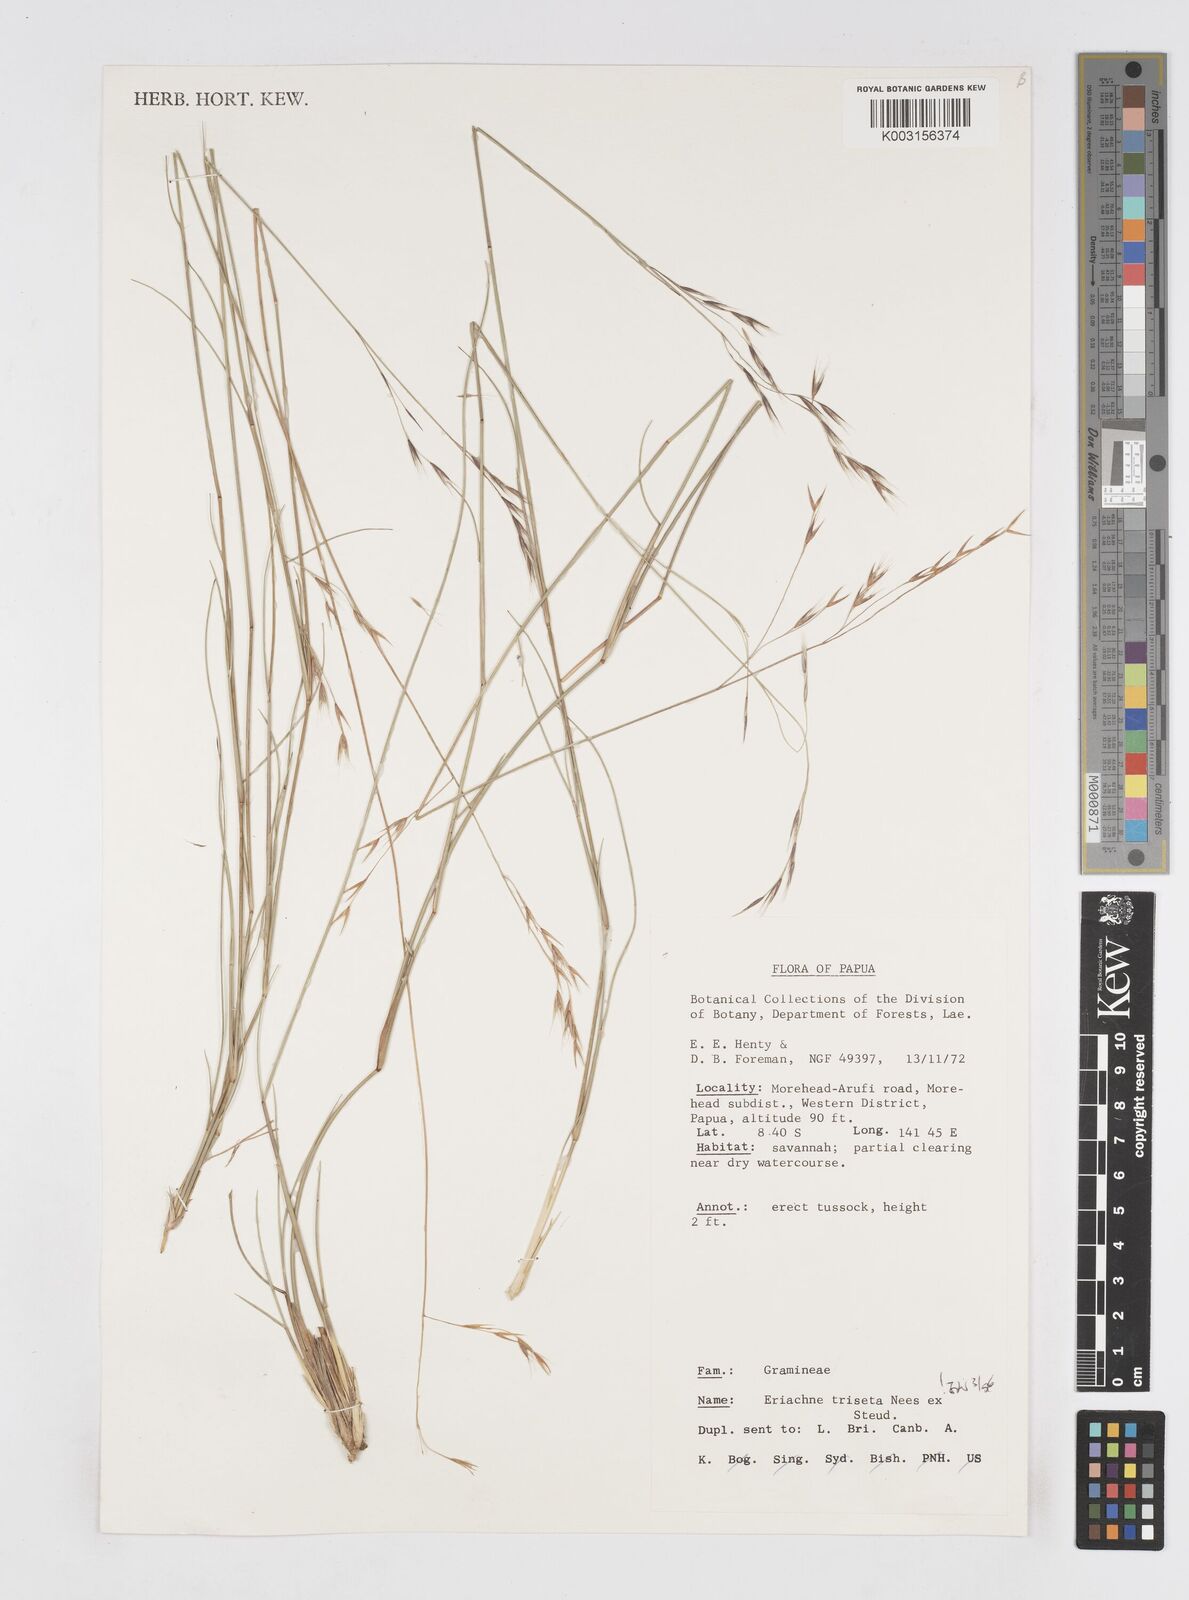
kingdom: Plantae
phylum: Tracheophyta
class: Liliopsida
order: Poales
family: Poaceae
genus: Eriachne
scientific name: Eriachne triseta
